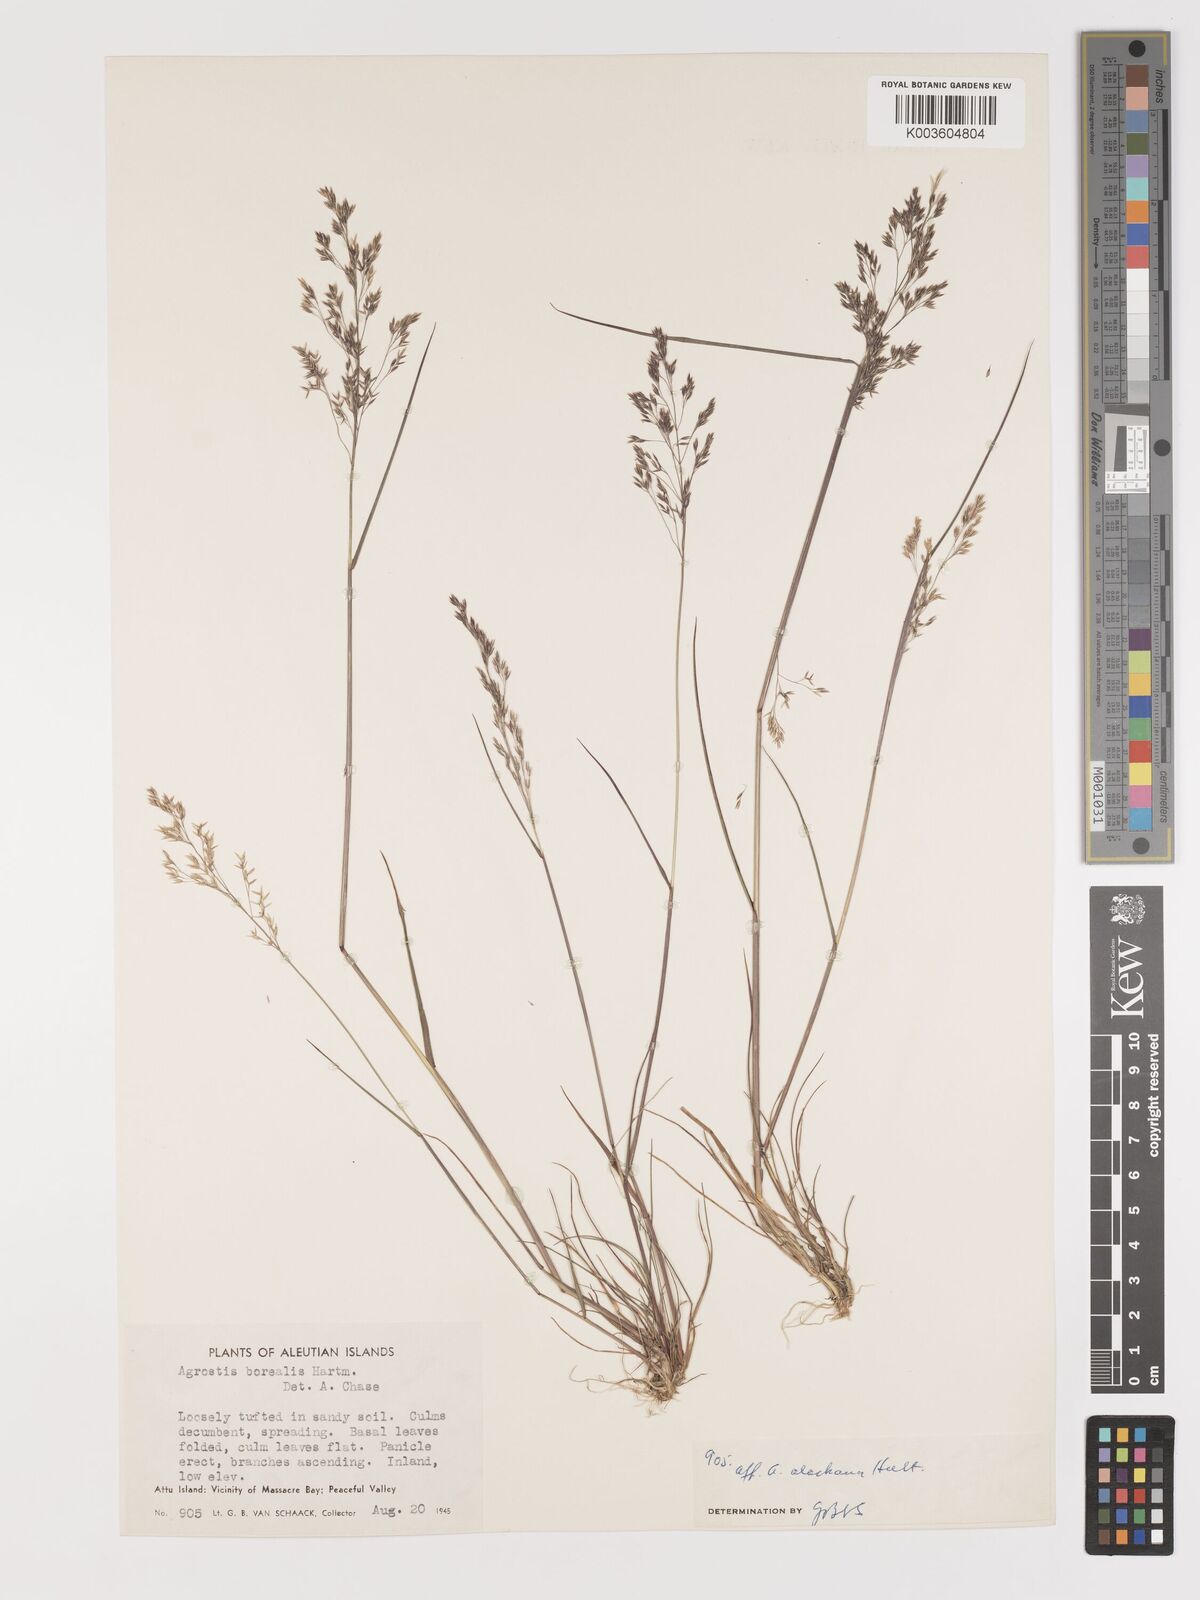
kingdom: Plantae
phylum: Tracheophyta
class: Liliopsida
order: Poales
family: Poaceae
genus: Agrostis
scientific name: Agrostis
